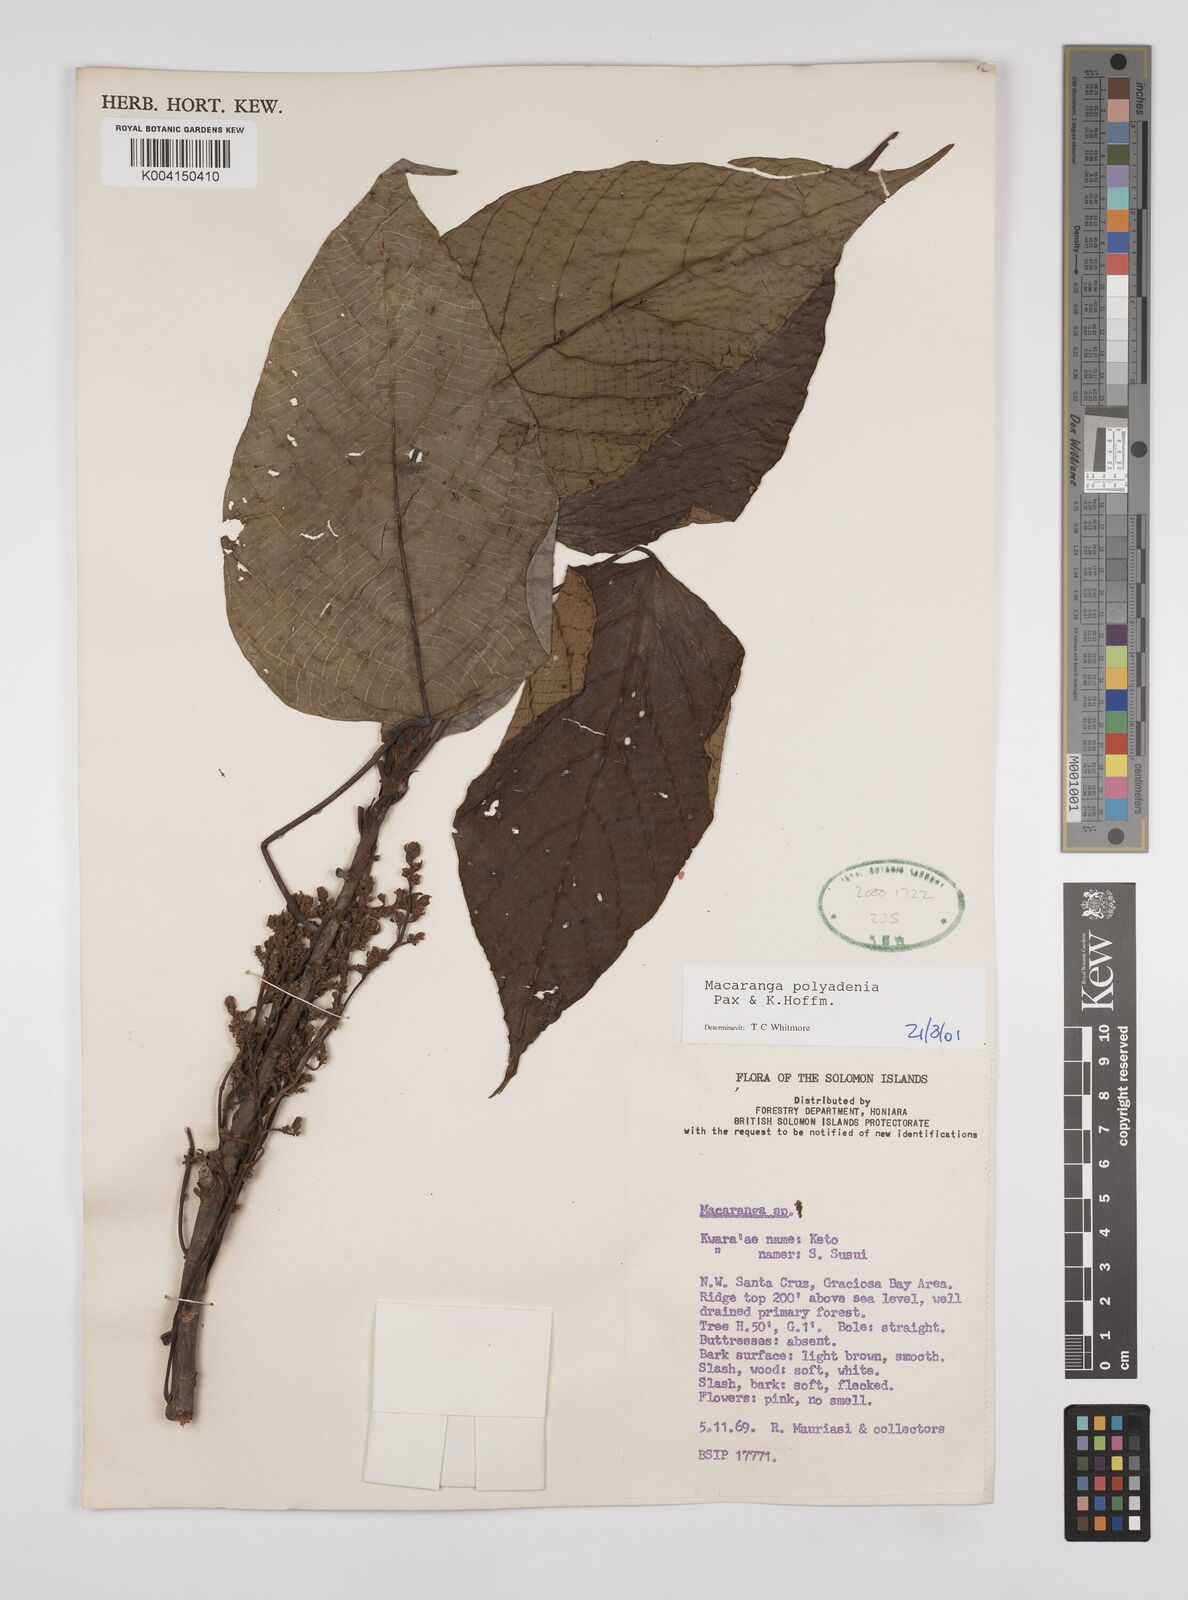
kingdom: Plantae
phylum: Tracheophyta
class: Magnoliopsida
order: Malpighiales
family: Euphorbiaceae
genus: Macaranga
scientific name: Macaranga polyadenia
